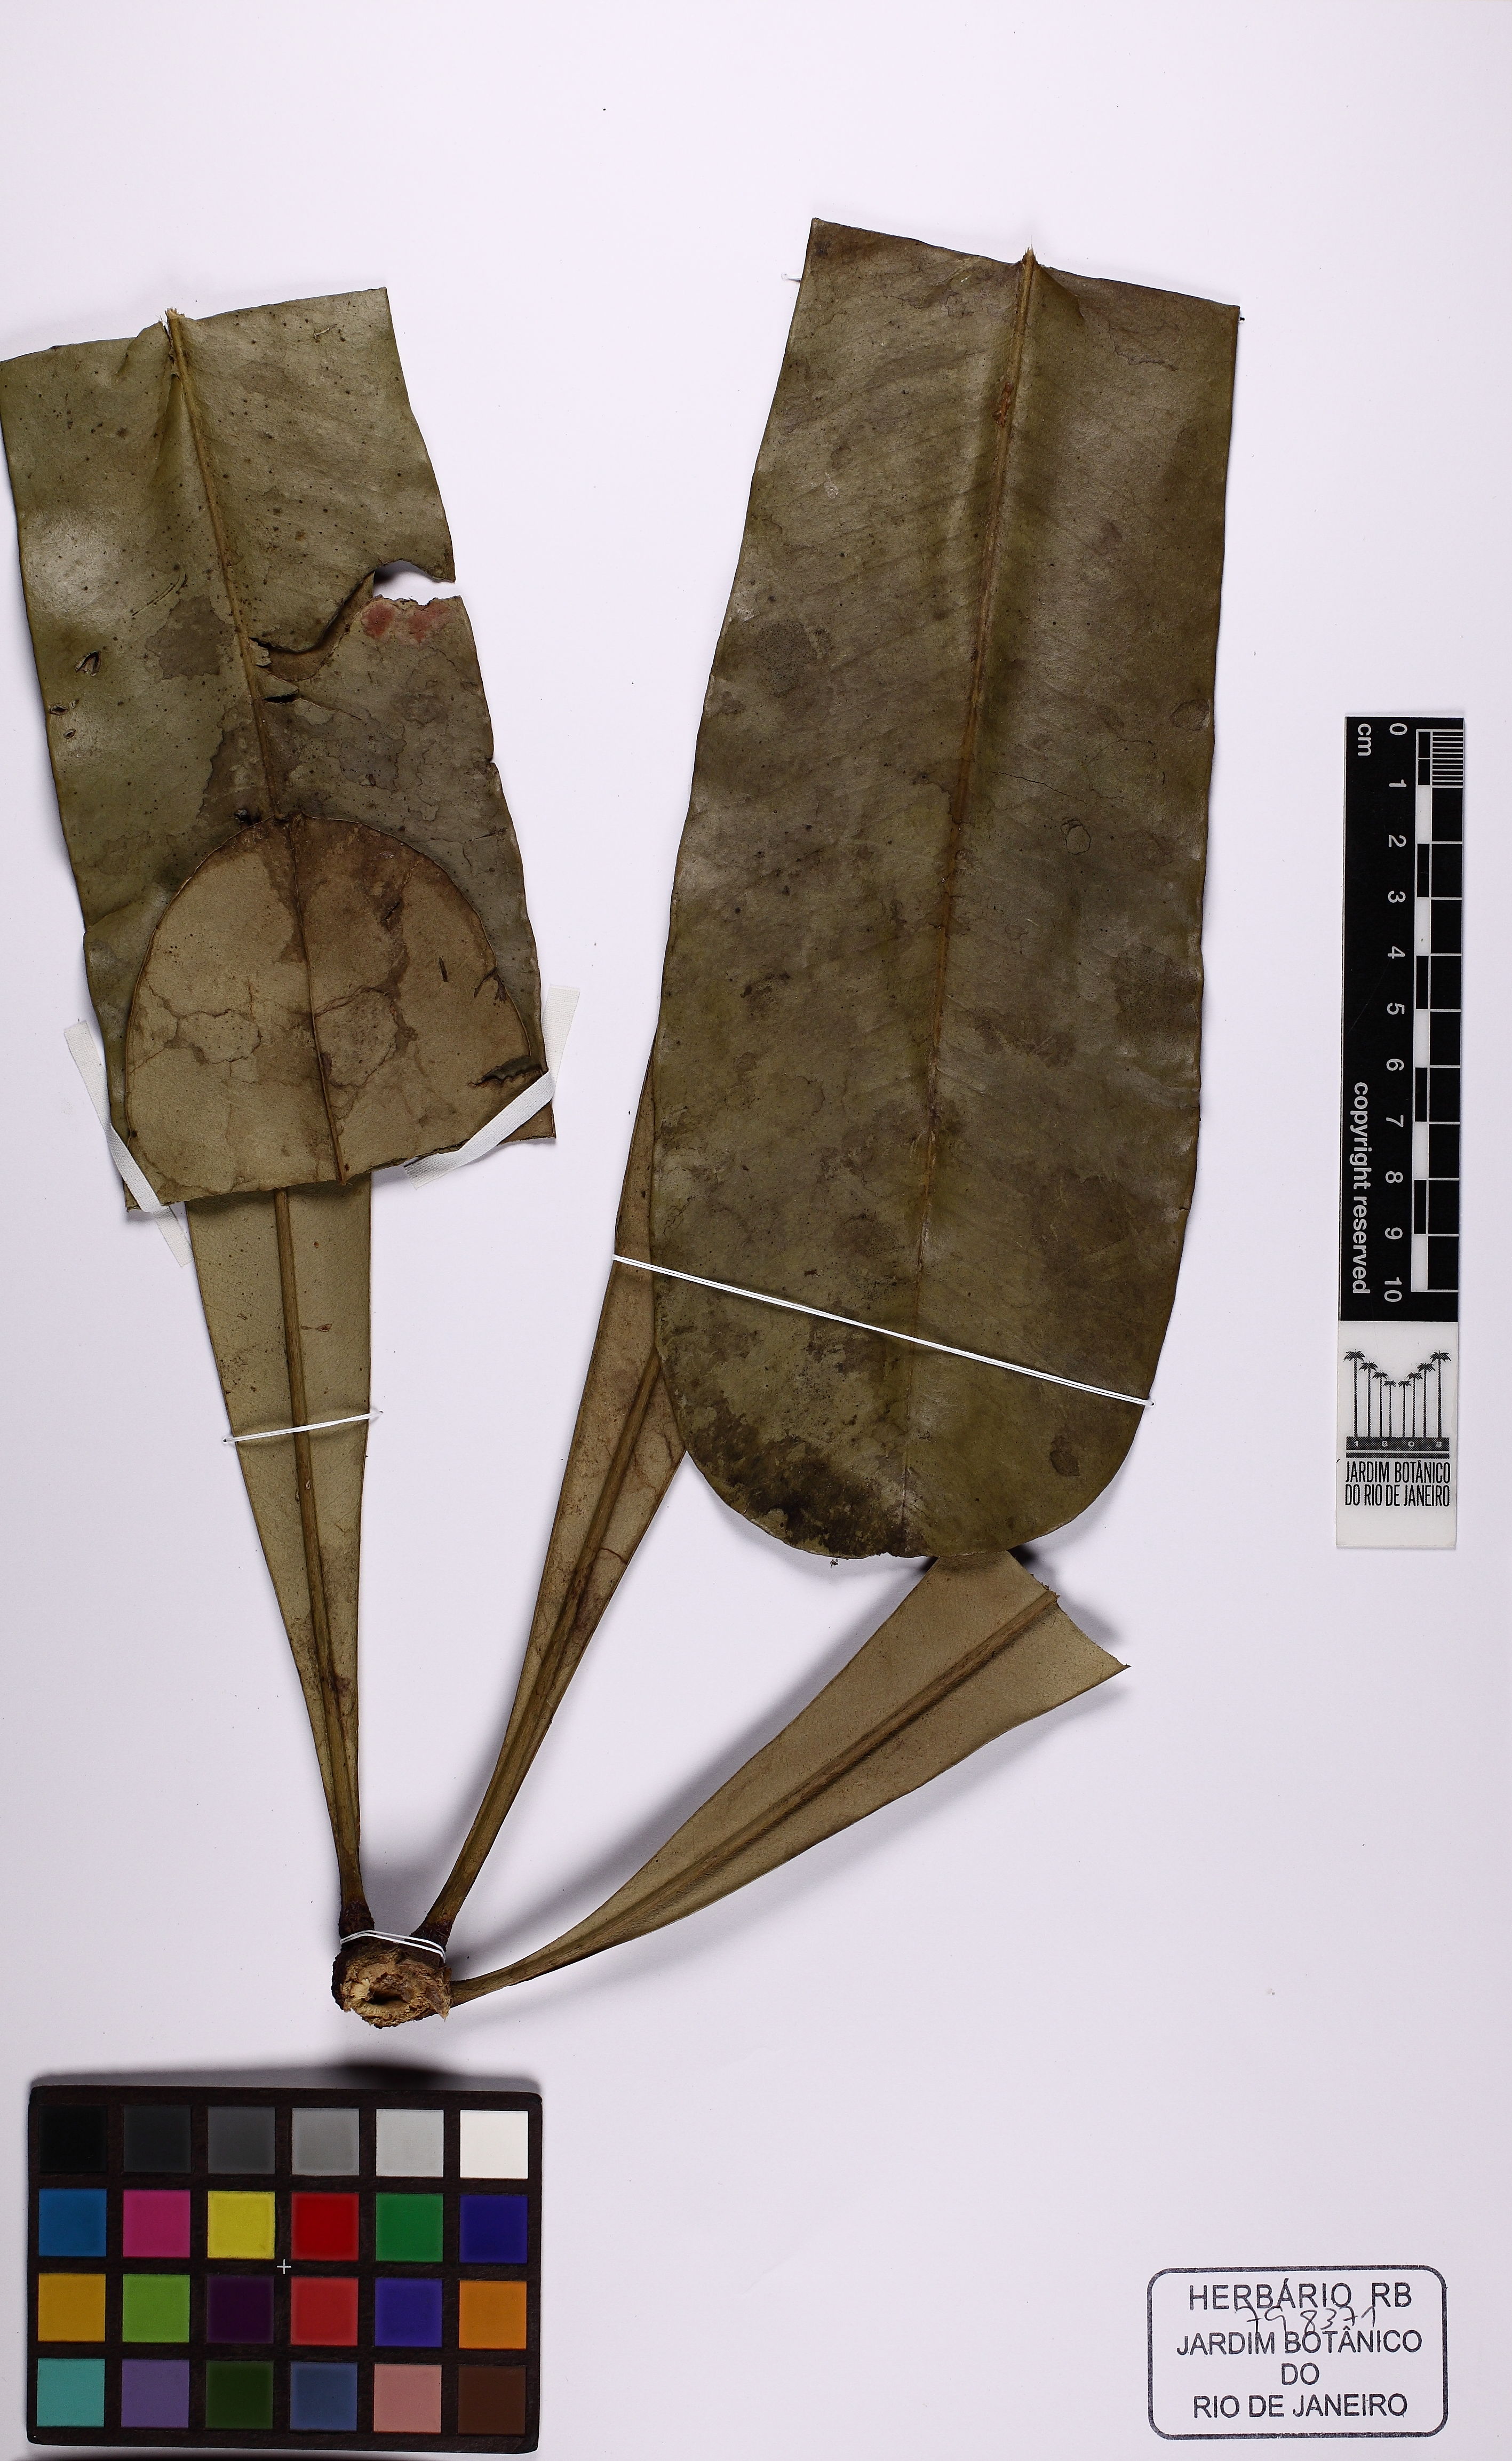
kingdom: Plantae
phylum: Tracheophyta
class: Magnoliopsida
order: Sapindales
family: Rutaceae
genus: Hortia
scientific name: Hortia excelsa
